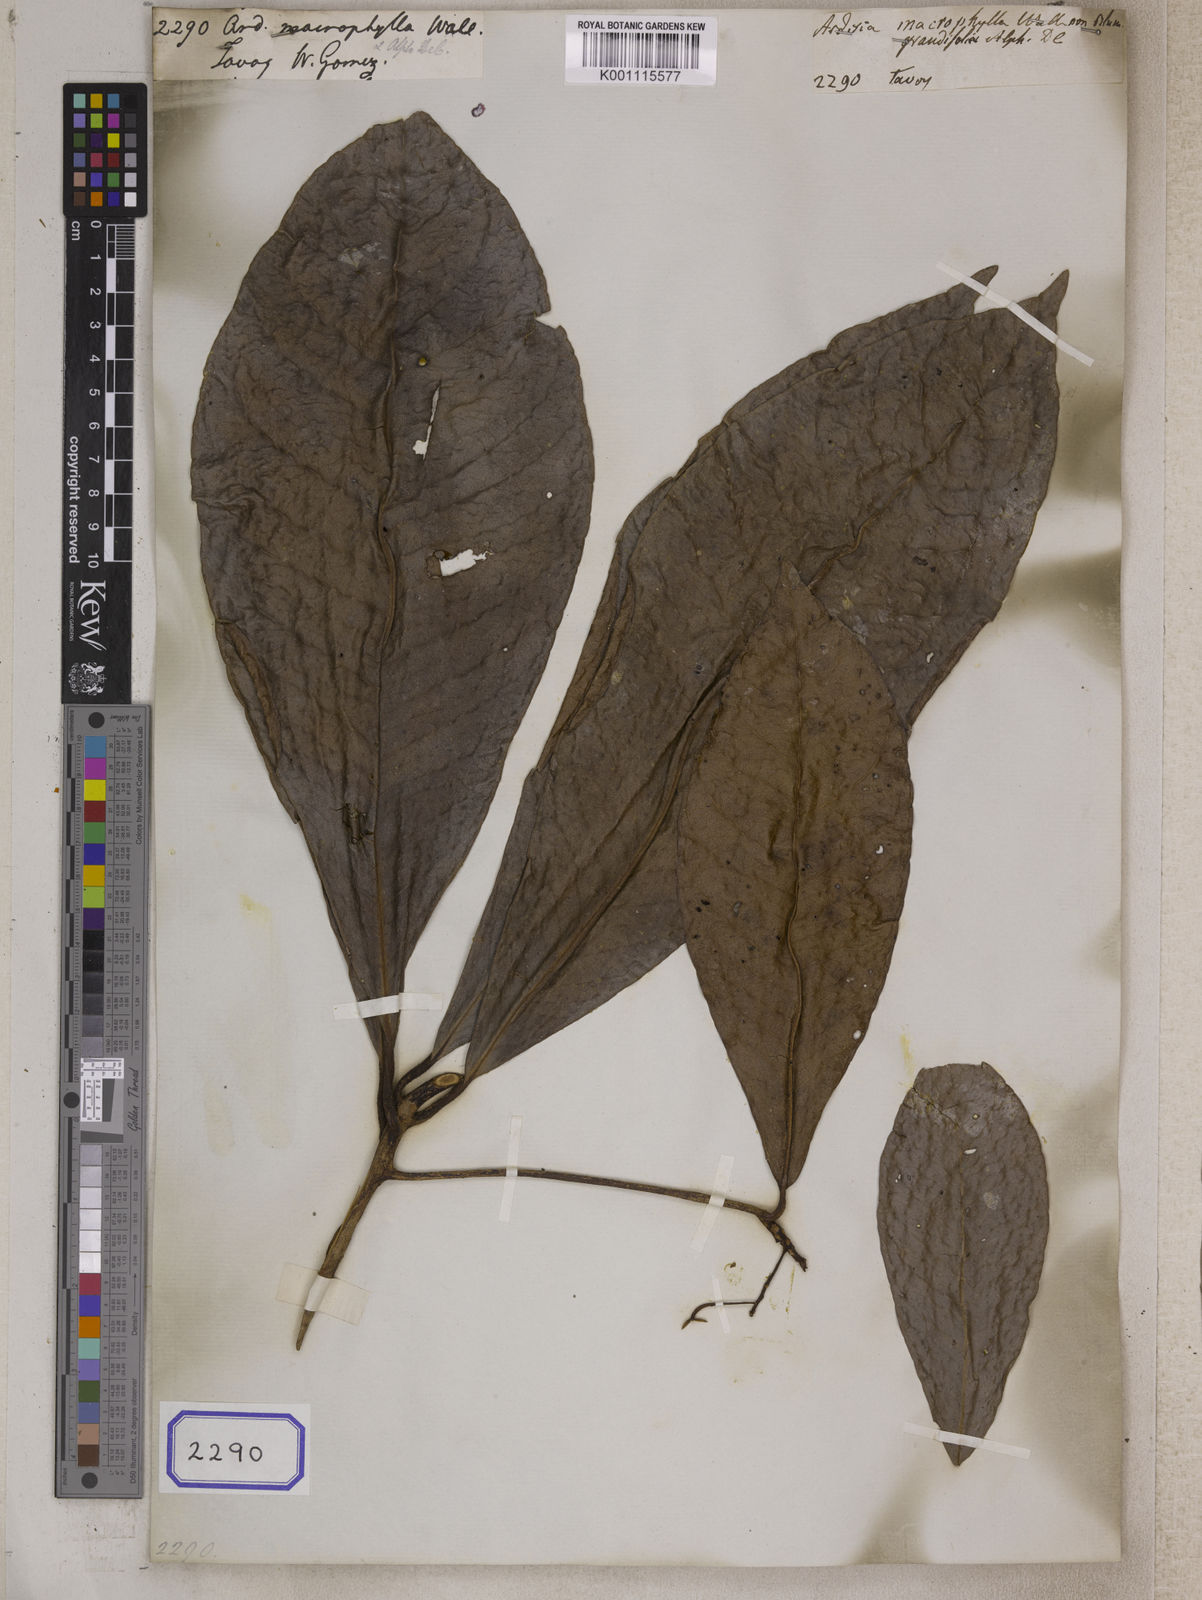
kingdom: Plantae
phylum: Tracheophyta
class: Magnoliopsida
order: Ericales
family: Primulaceae
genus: Ardisia
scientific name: Ardisia grandifolia
